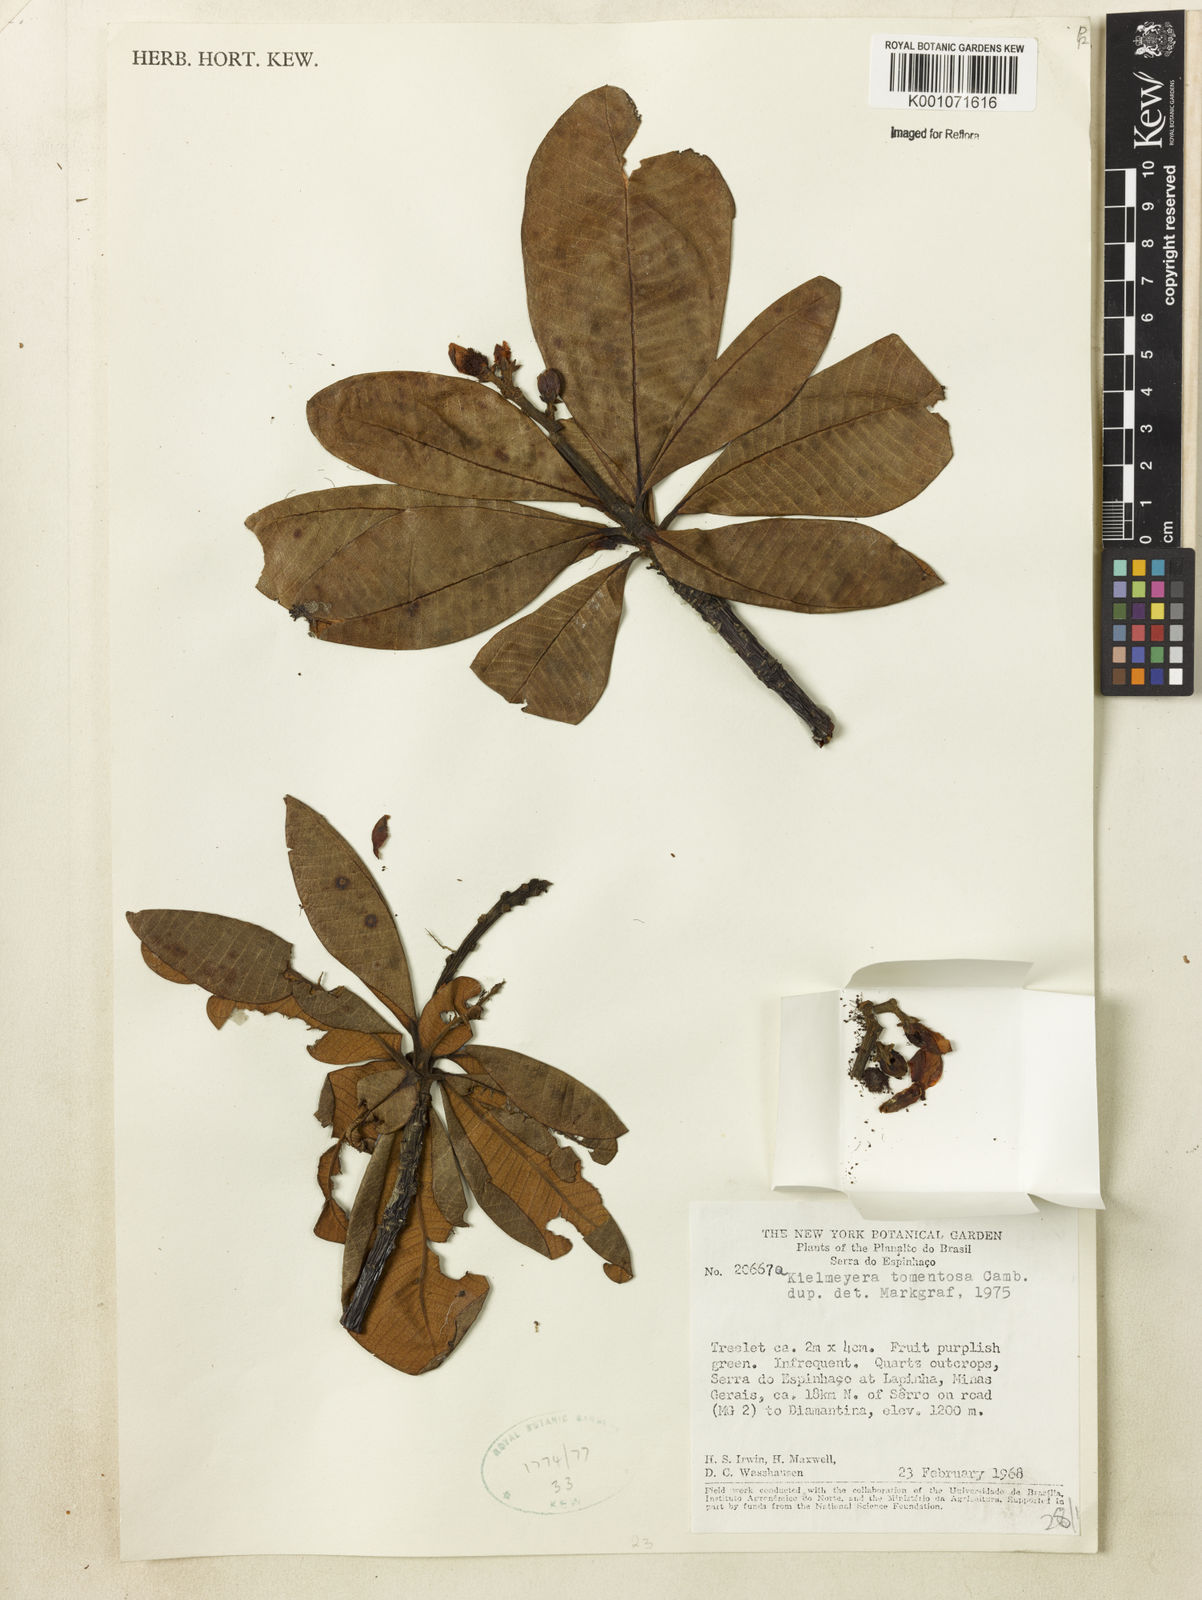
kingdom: Plantae
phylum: Tracheophyta
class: Magnoliopsida
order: Malpighiales
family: Calophyllaceae
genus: Kielmeyera
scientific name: Kielmeyera appariciana
